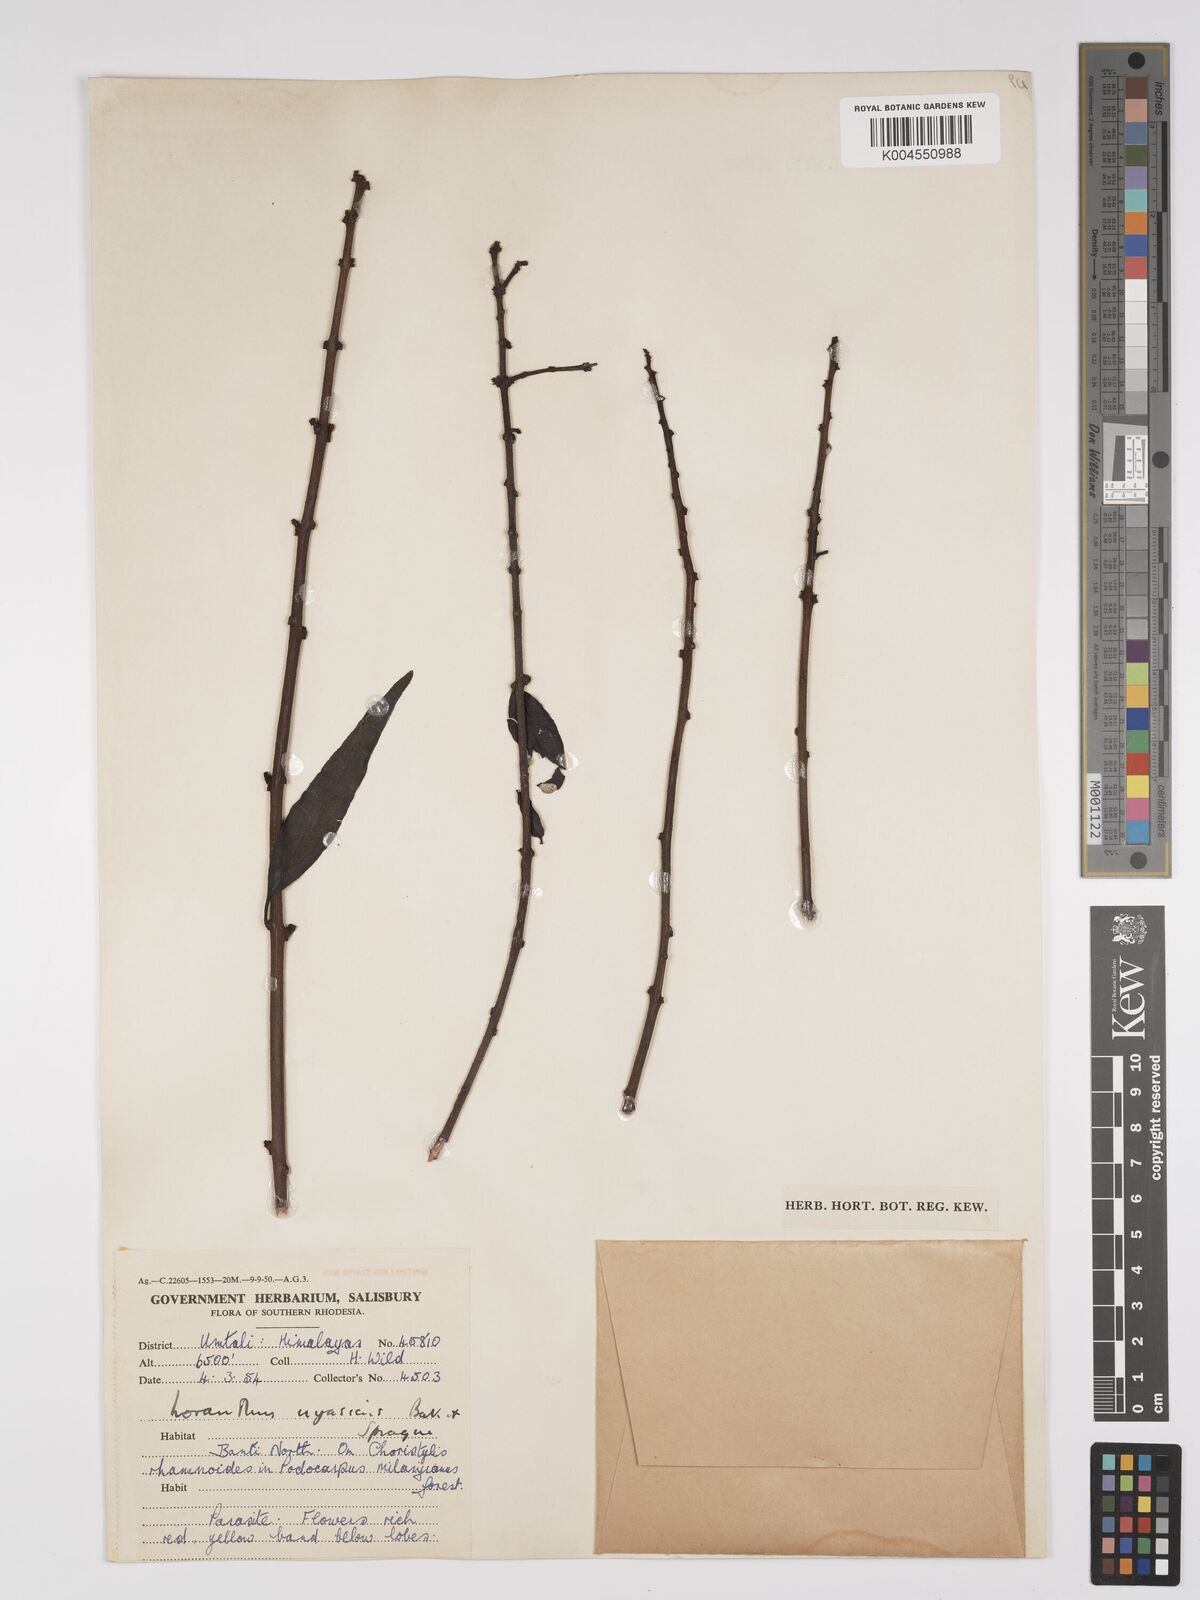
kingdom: Plantae
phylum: Tracheophyta
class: Magnoliopsida
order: Santalales
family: Loranthaceae
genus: Agelanthus
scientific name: Agelanthus lancifolius
